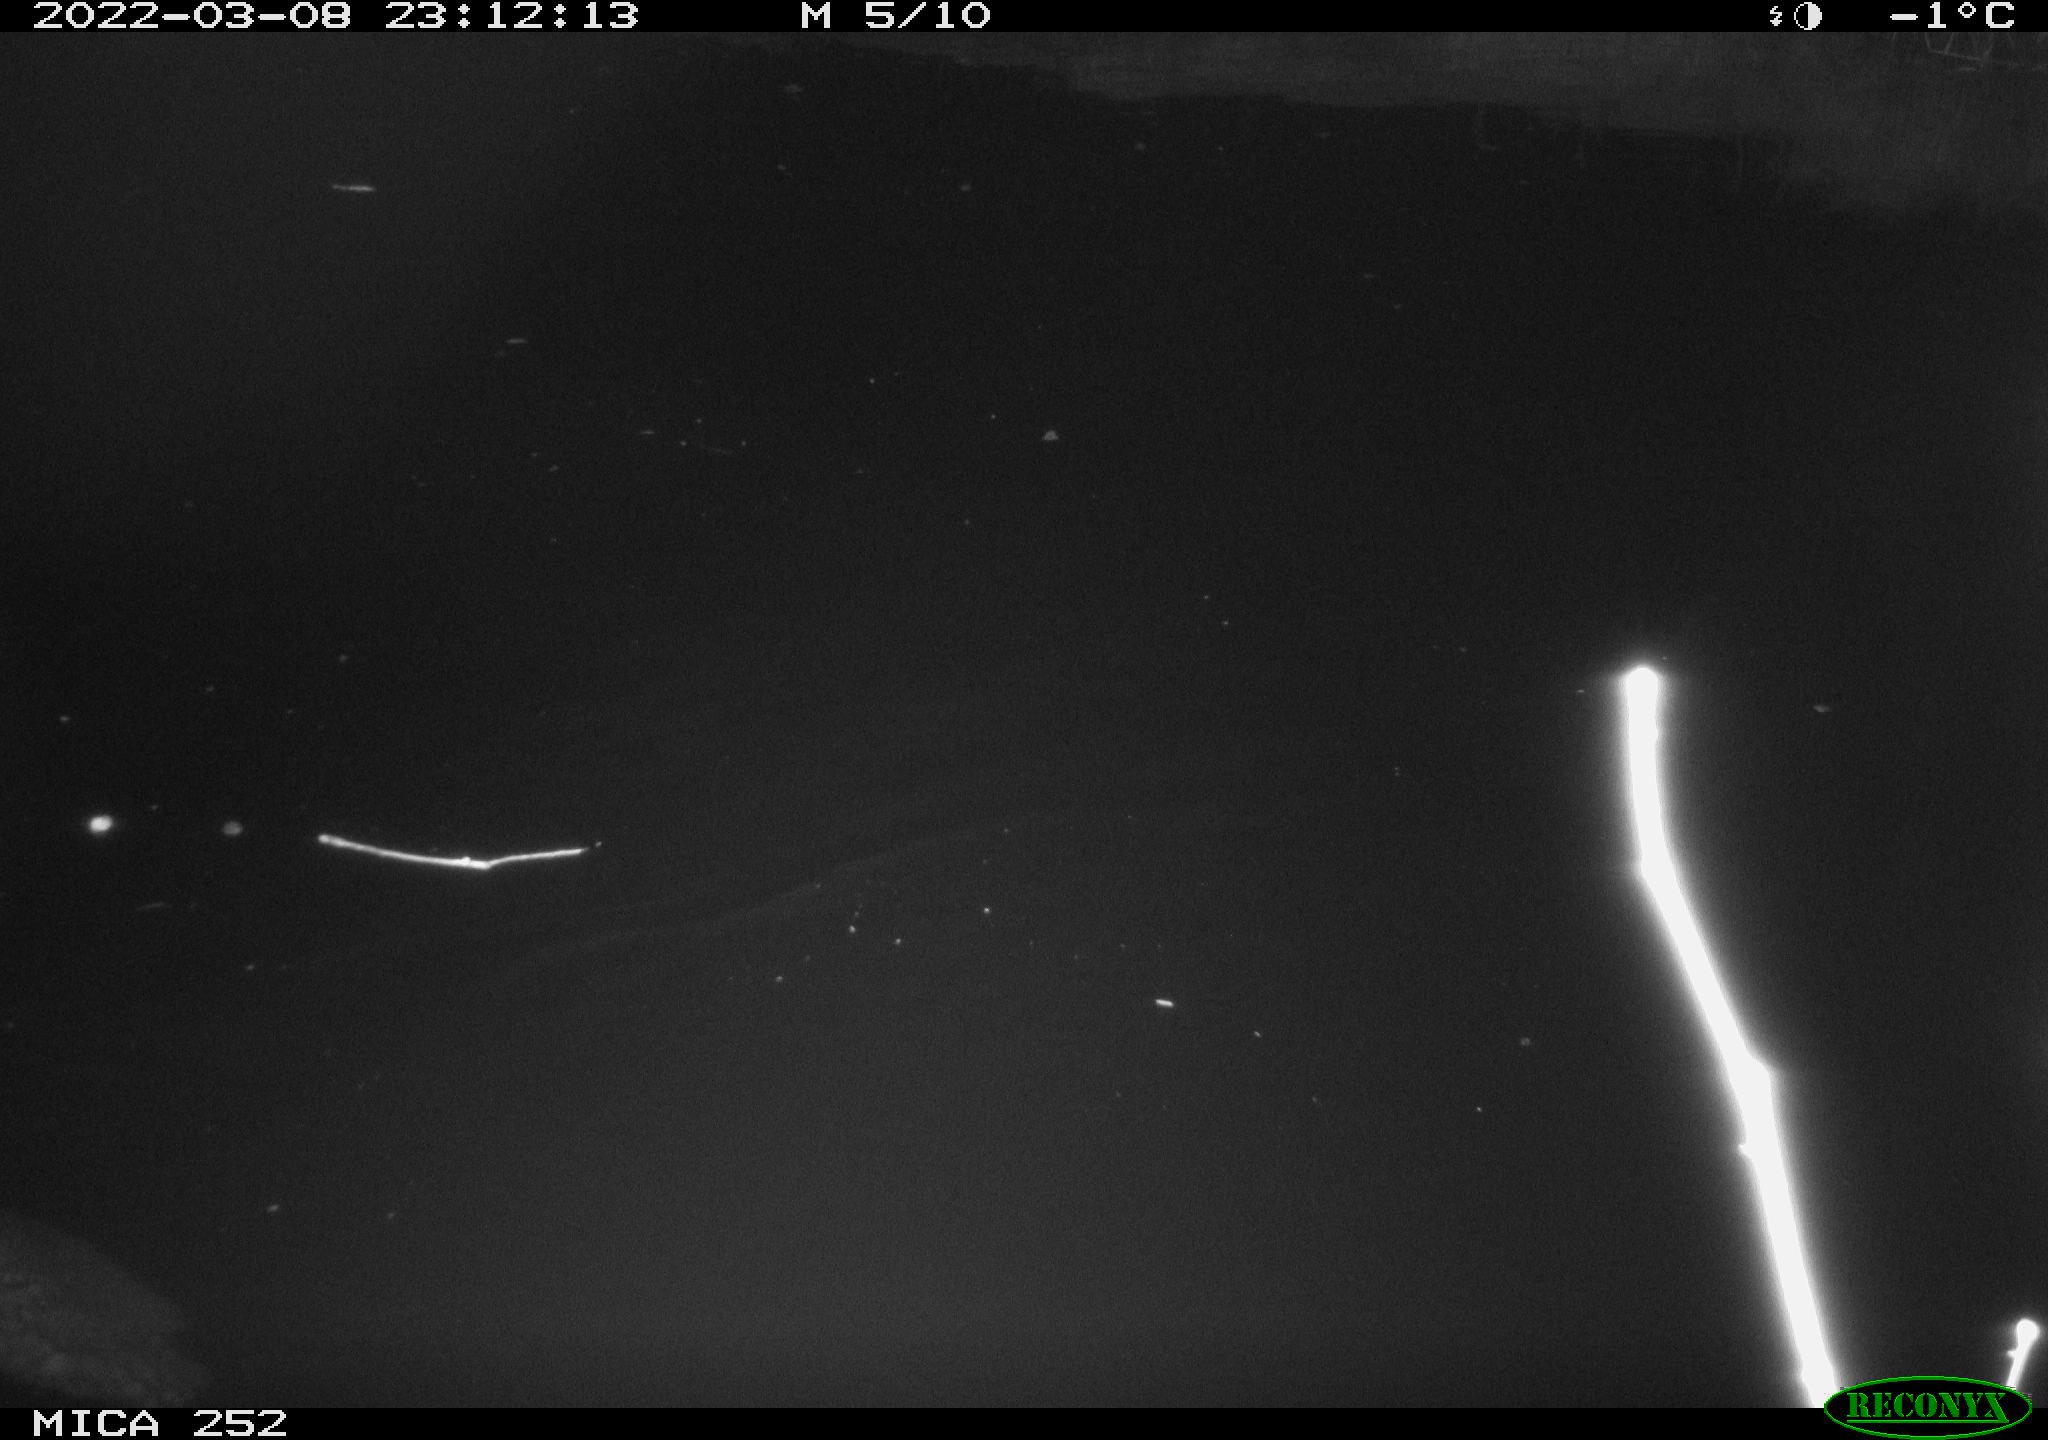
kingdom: Animalia
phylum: Chordata
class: Mammalia
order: Rodentia
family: Castoridae
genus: Castor
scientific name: Castor fiber
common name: Eurasian beaver
